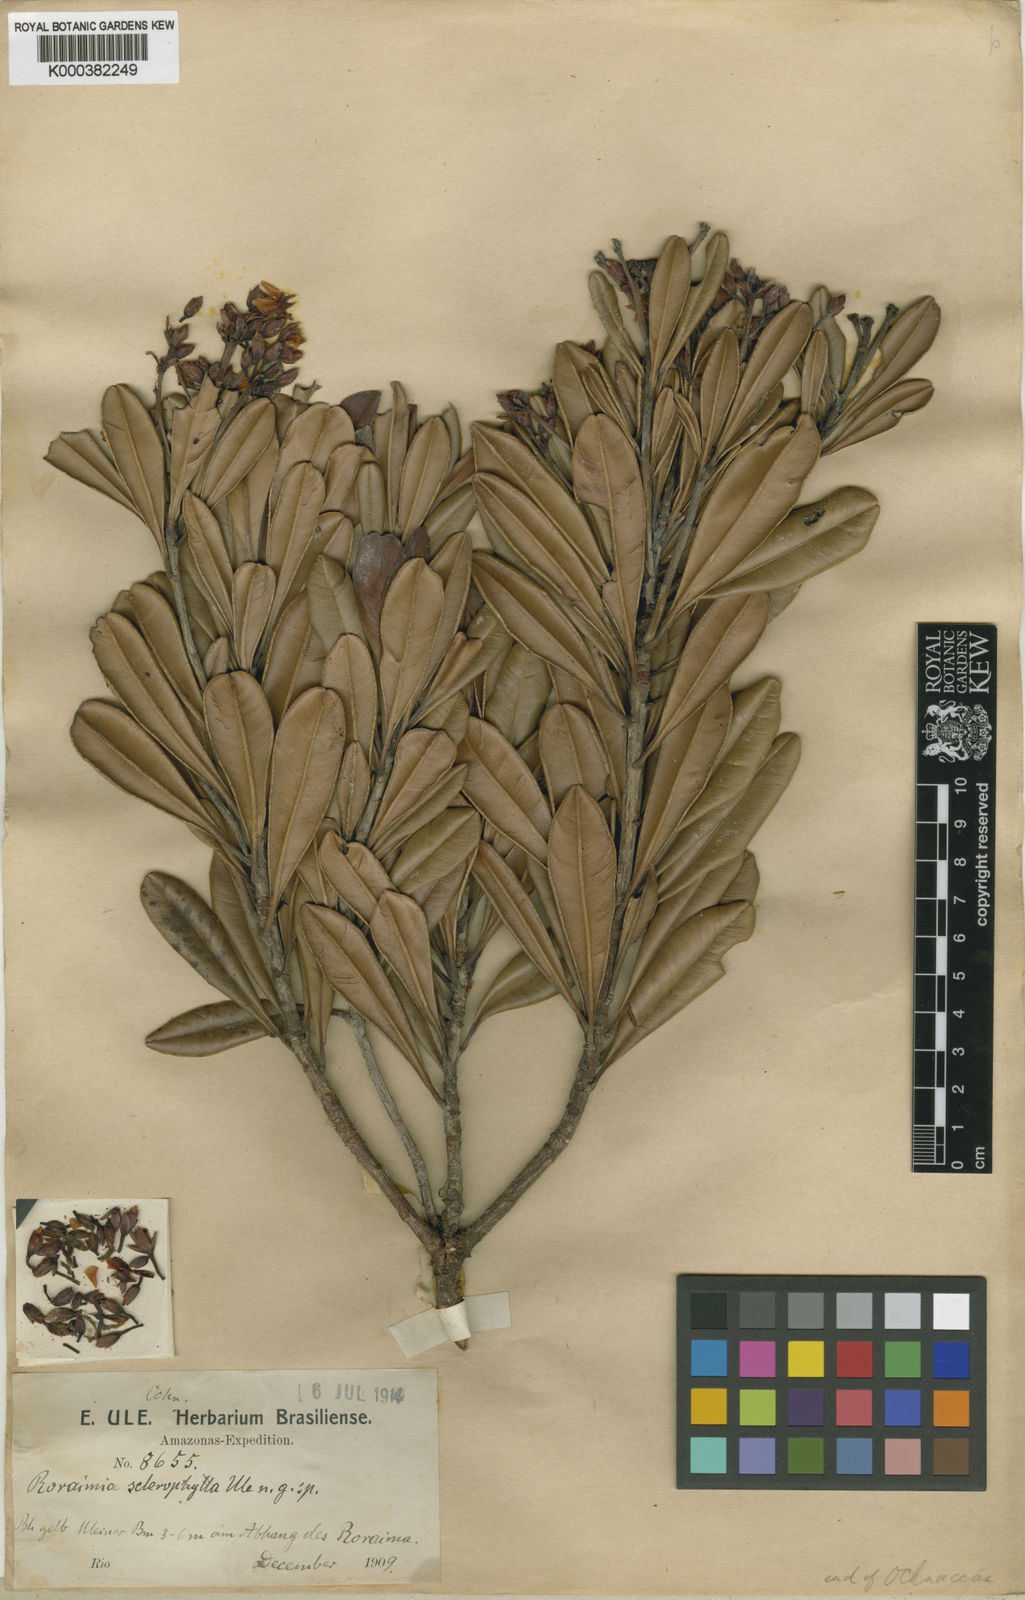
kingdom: Plantae
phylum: Tracheophyta
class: Magnoliopsida
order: Malpighiales
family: Ochnaceae
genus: Poecilandra
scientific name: Poecilandra retusa
